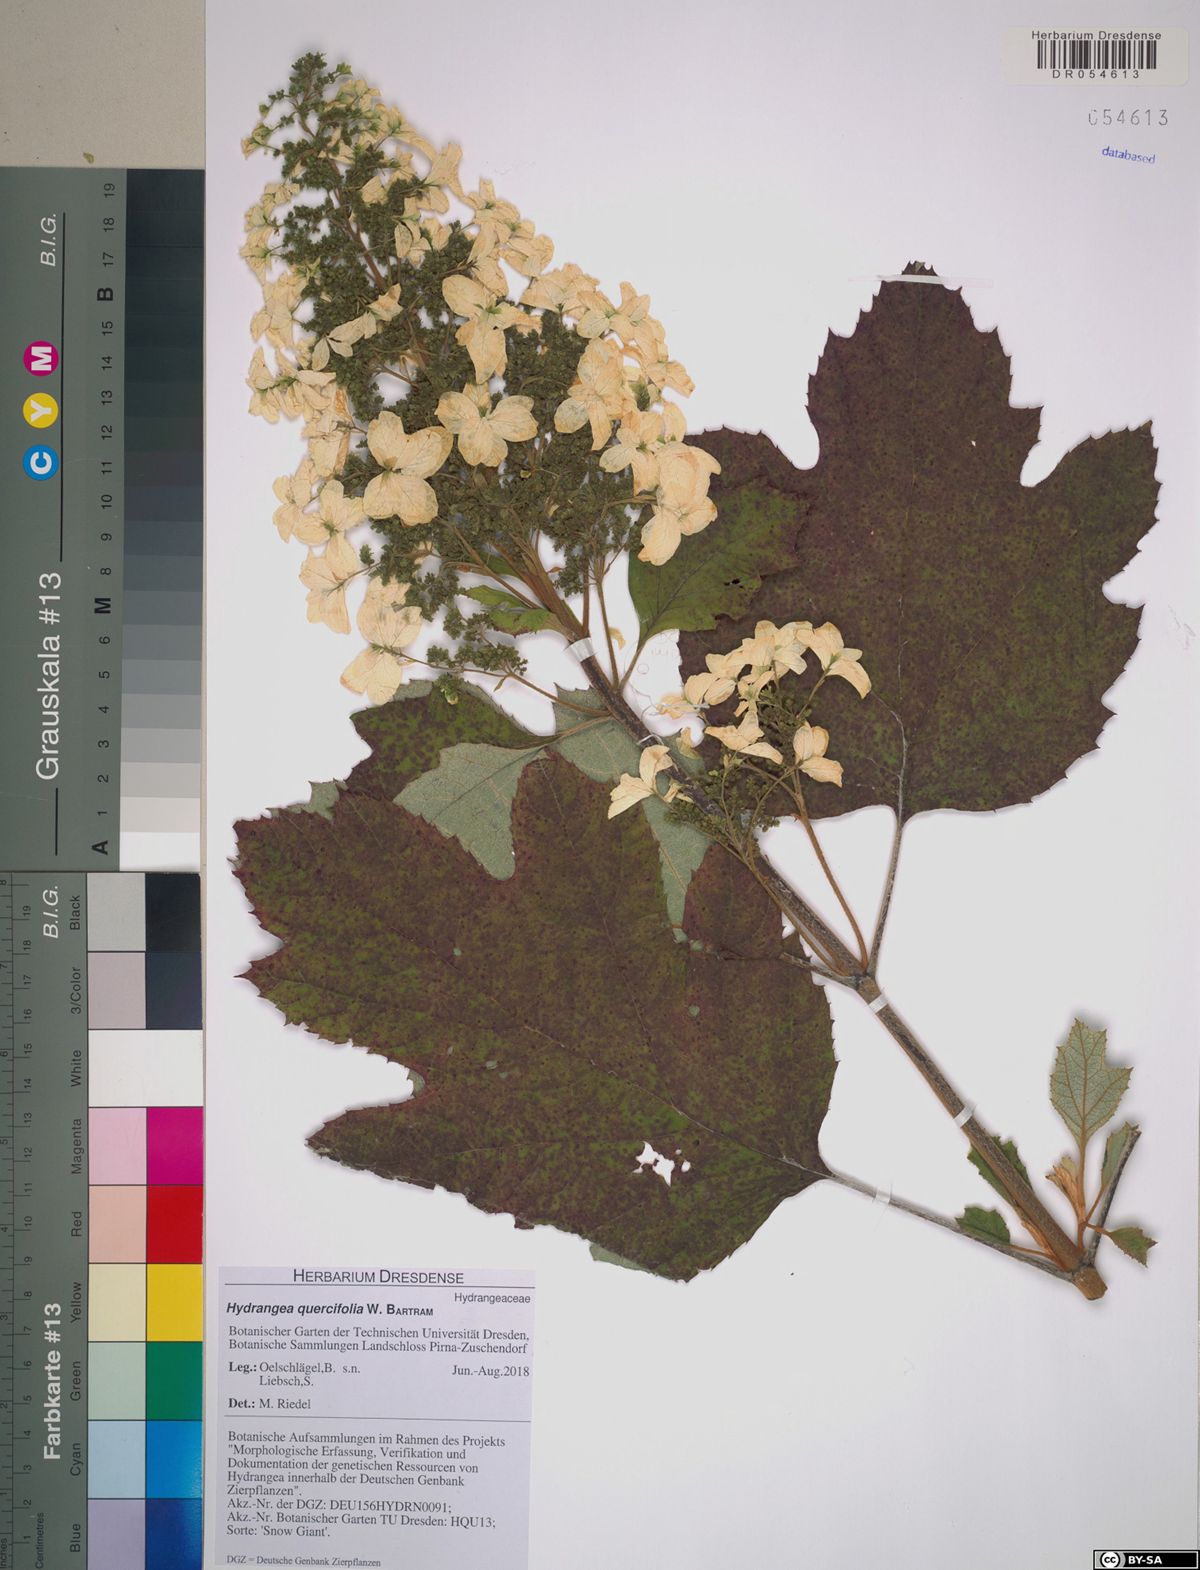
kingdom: Plantae
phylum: Tracheophyta
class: Magnoliopsida
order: Cornales
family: Hydrangeaceae
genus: Hydrangea
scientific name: Hydrangea quercifolia
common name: Oak-leaf hydrangea
